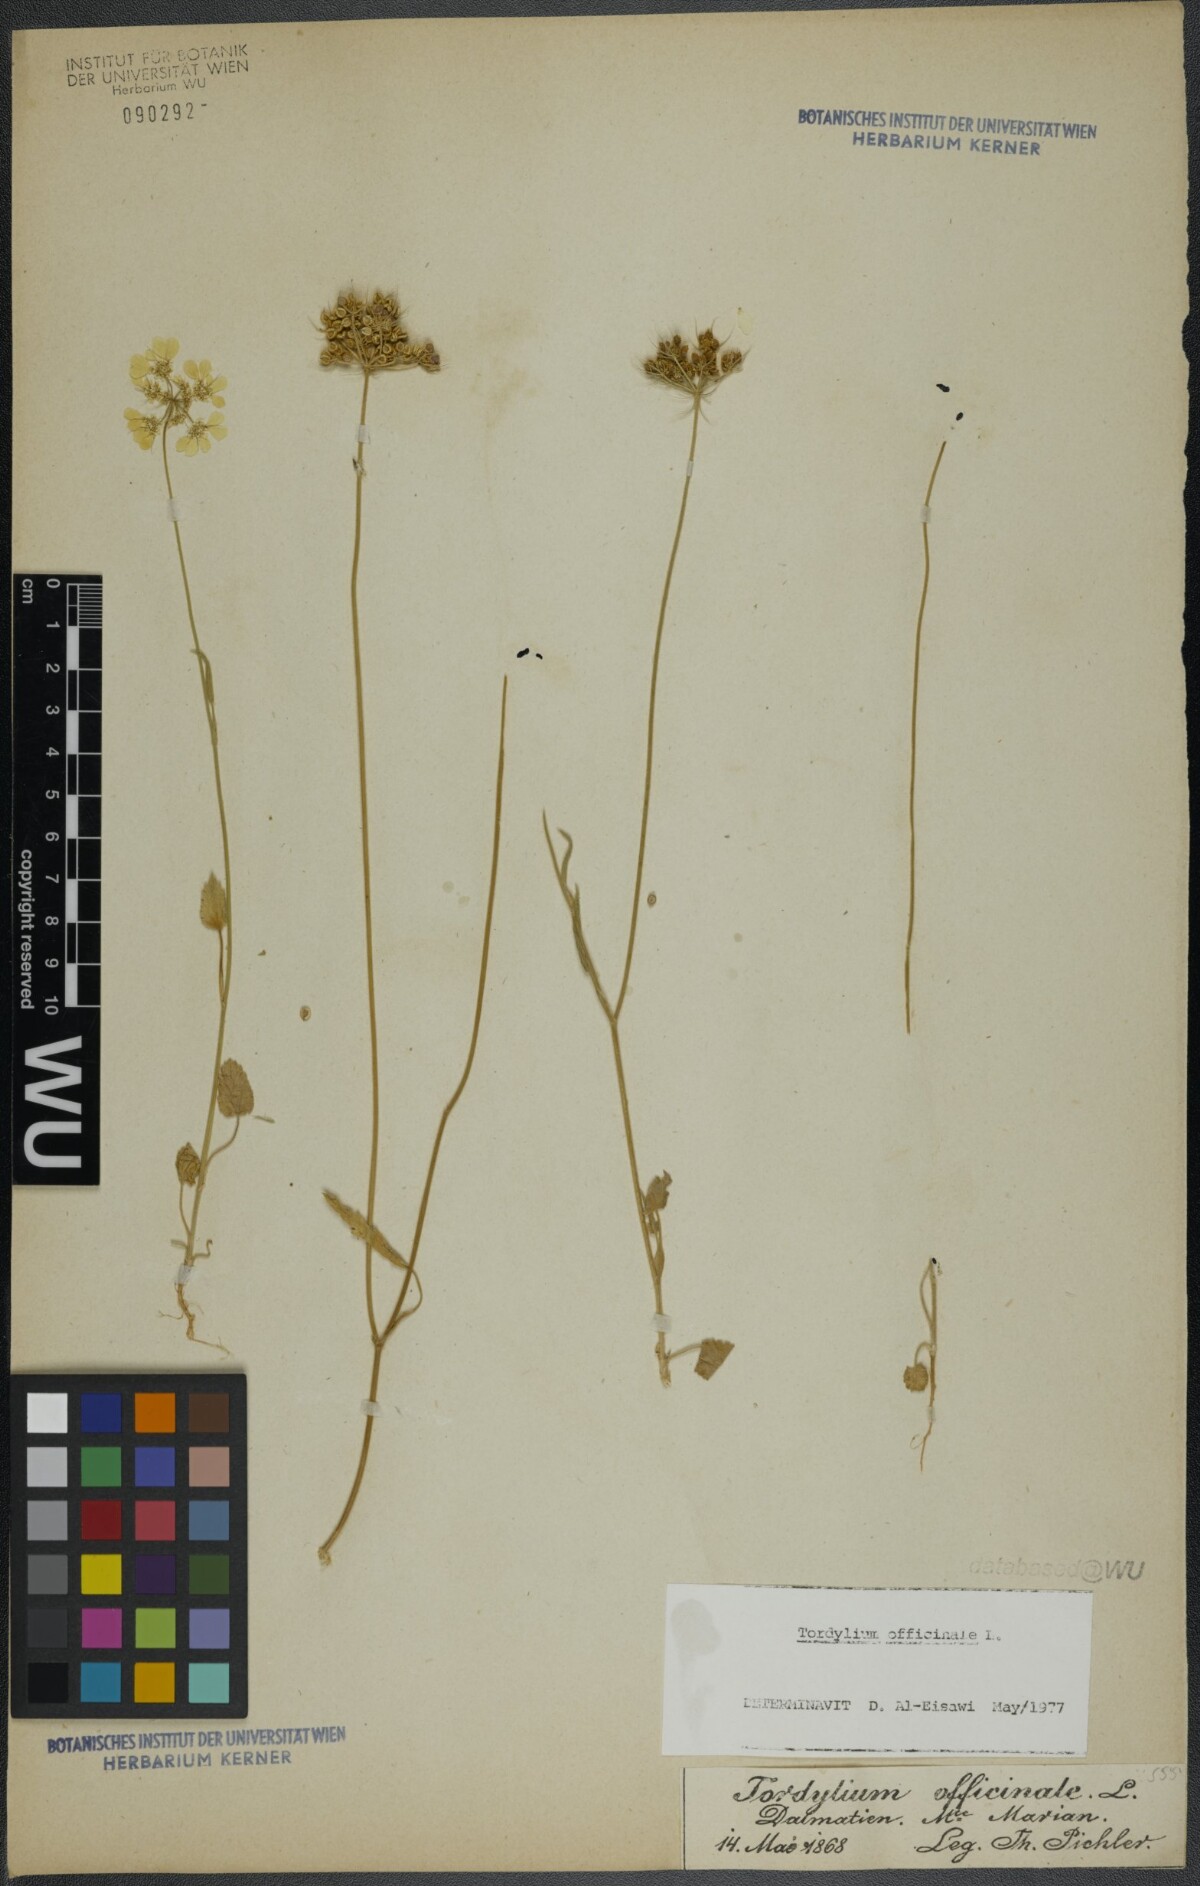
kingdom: Plantae
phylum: Tracheophyta
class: Magnoliopsida
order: Apiales
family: Apiaceae
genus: Tordylium
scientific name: Tordylium officinale
